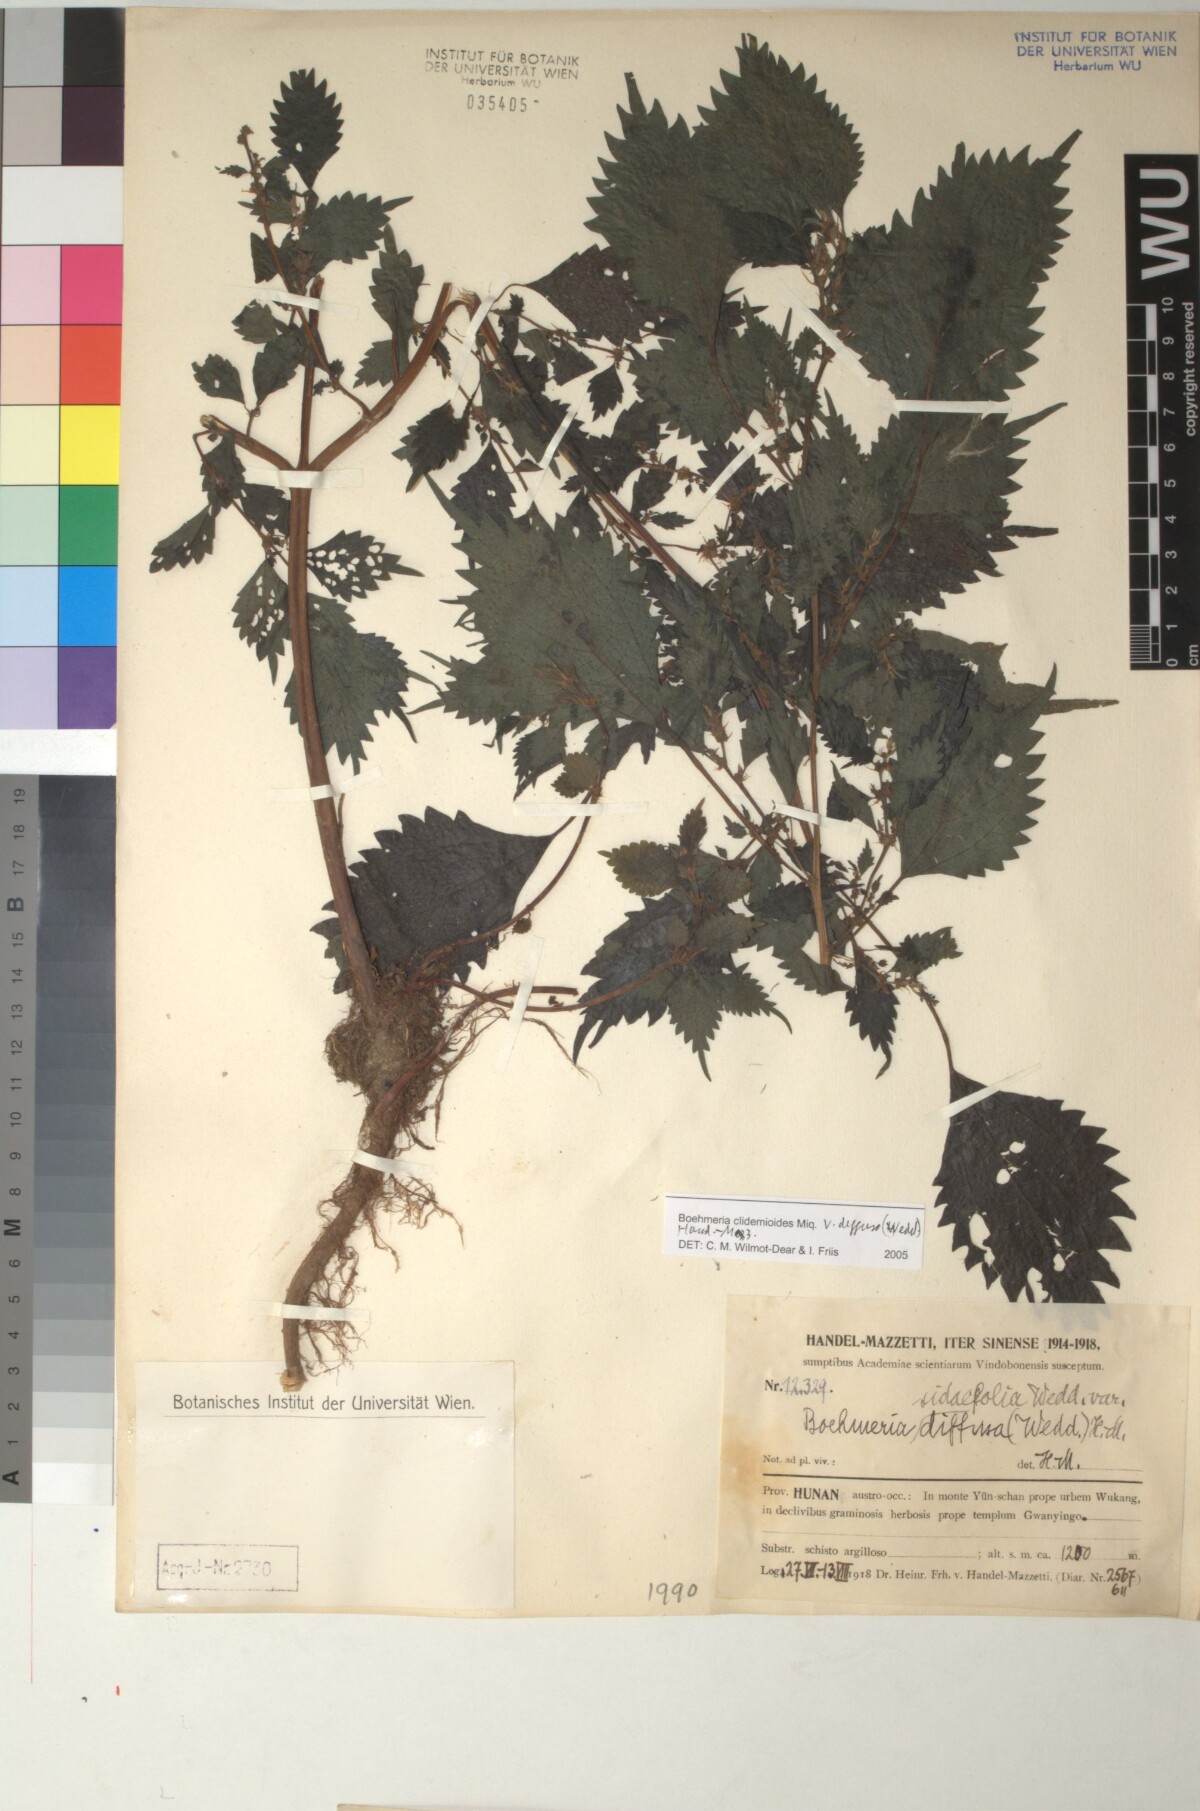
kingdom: Plantae
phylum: Tracheophyta
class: Magnoliopsida
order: Rosales
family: Urticaceae
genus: Boehmeria
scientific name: Boehmeria clidemioides
